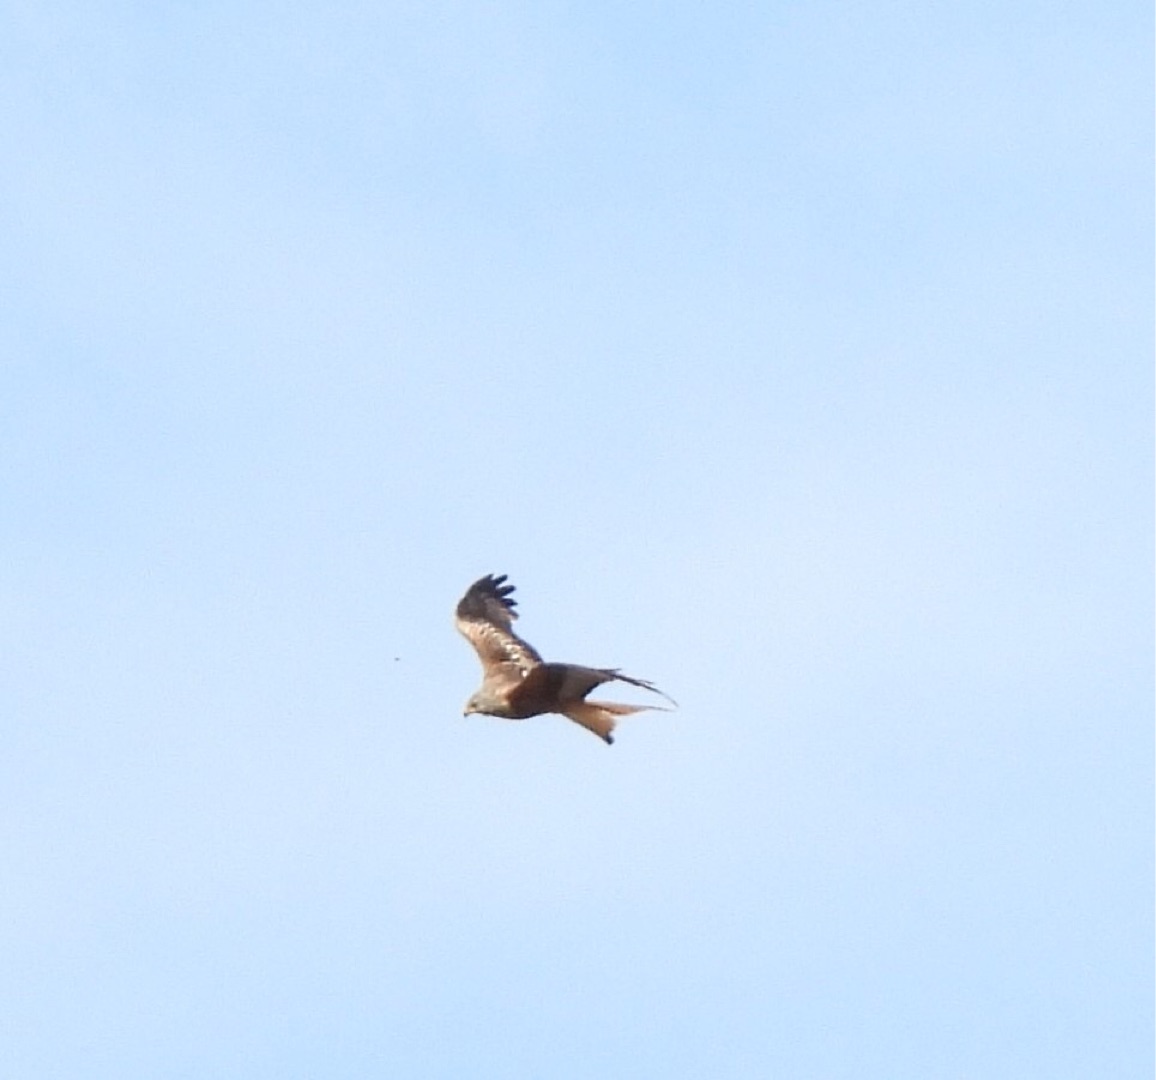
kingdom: Animalia
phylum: Chordata
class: Aves
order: Accipitriformes
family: Accipitridae
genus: Milvus
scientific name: Milvus milvus
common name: Rød glente
